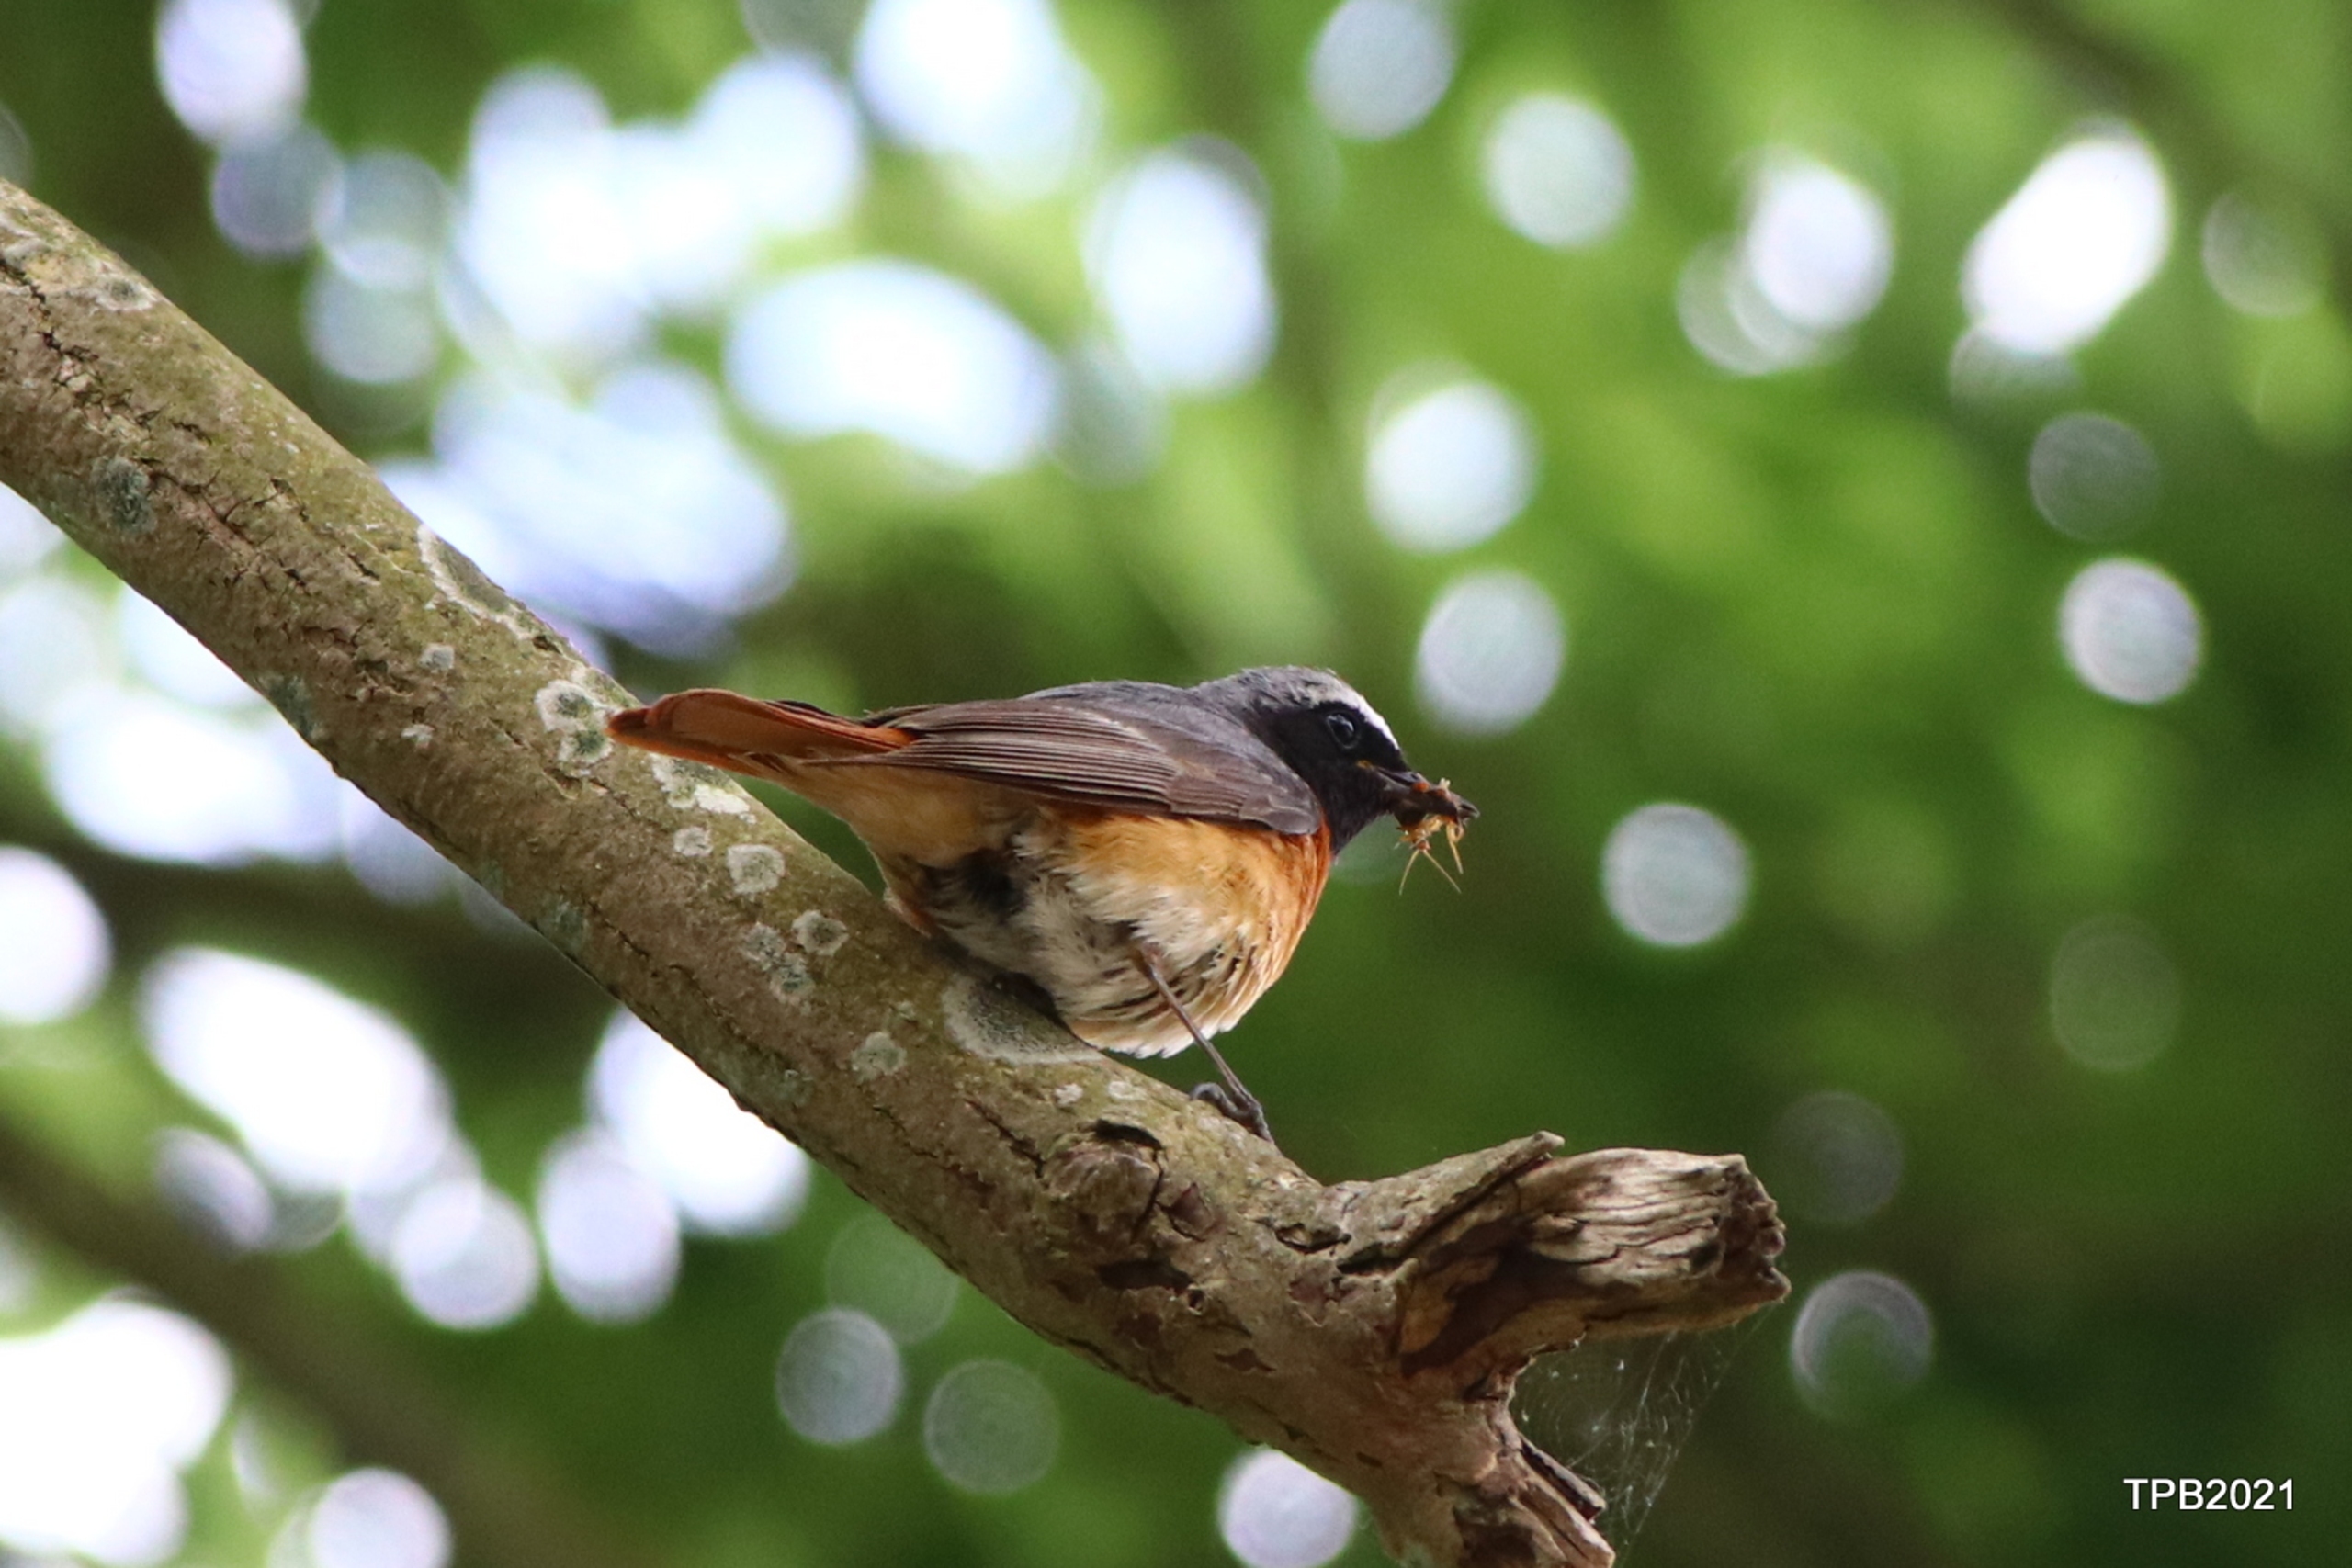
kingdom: Animalia
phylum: Chordata
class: Aves
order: Passeriformes
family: Muscicapidae
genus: Phoenicurus
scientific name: Phoenicurus phoenicurus
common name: Rødstjert
